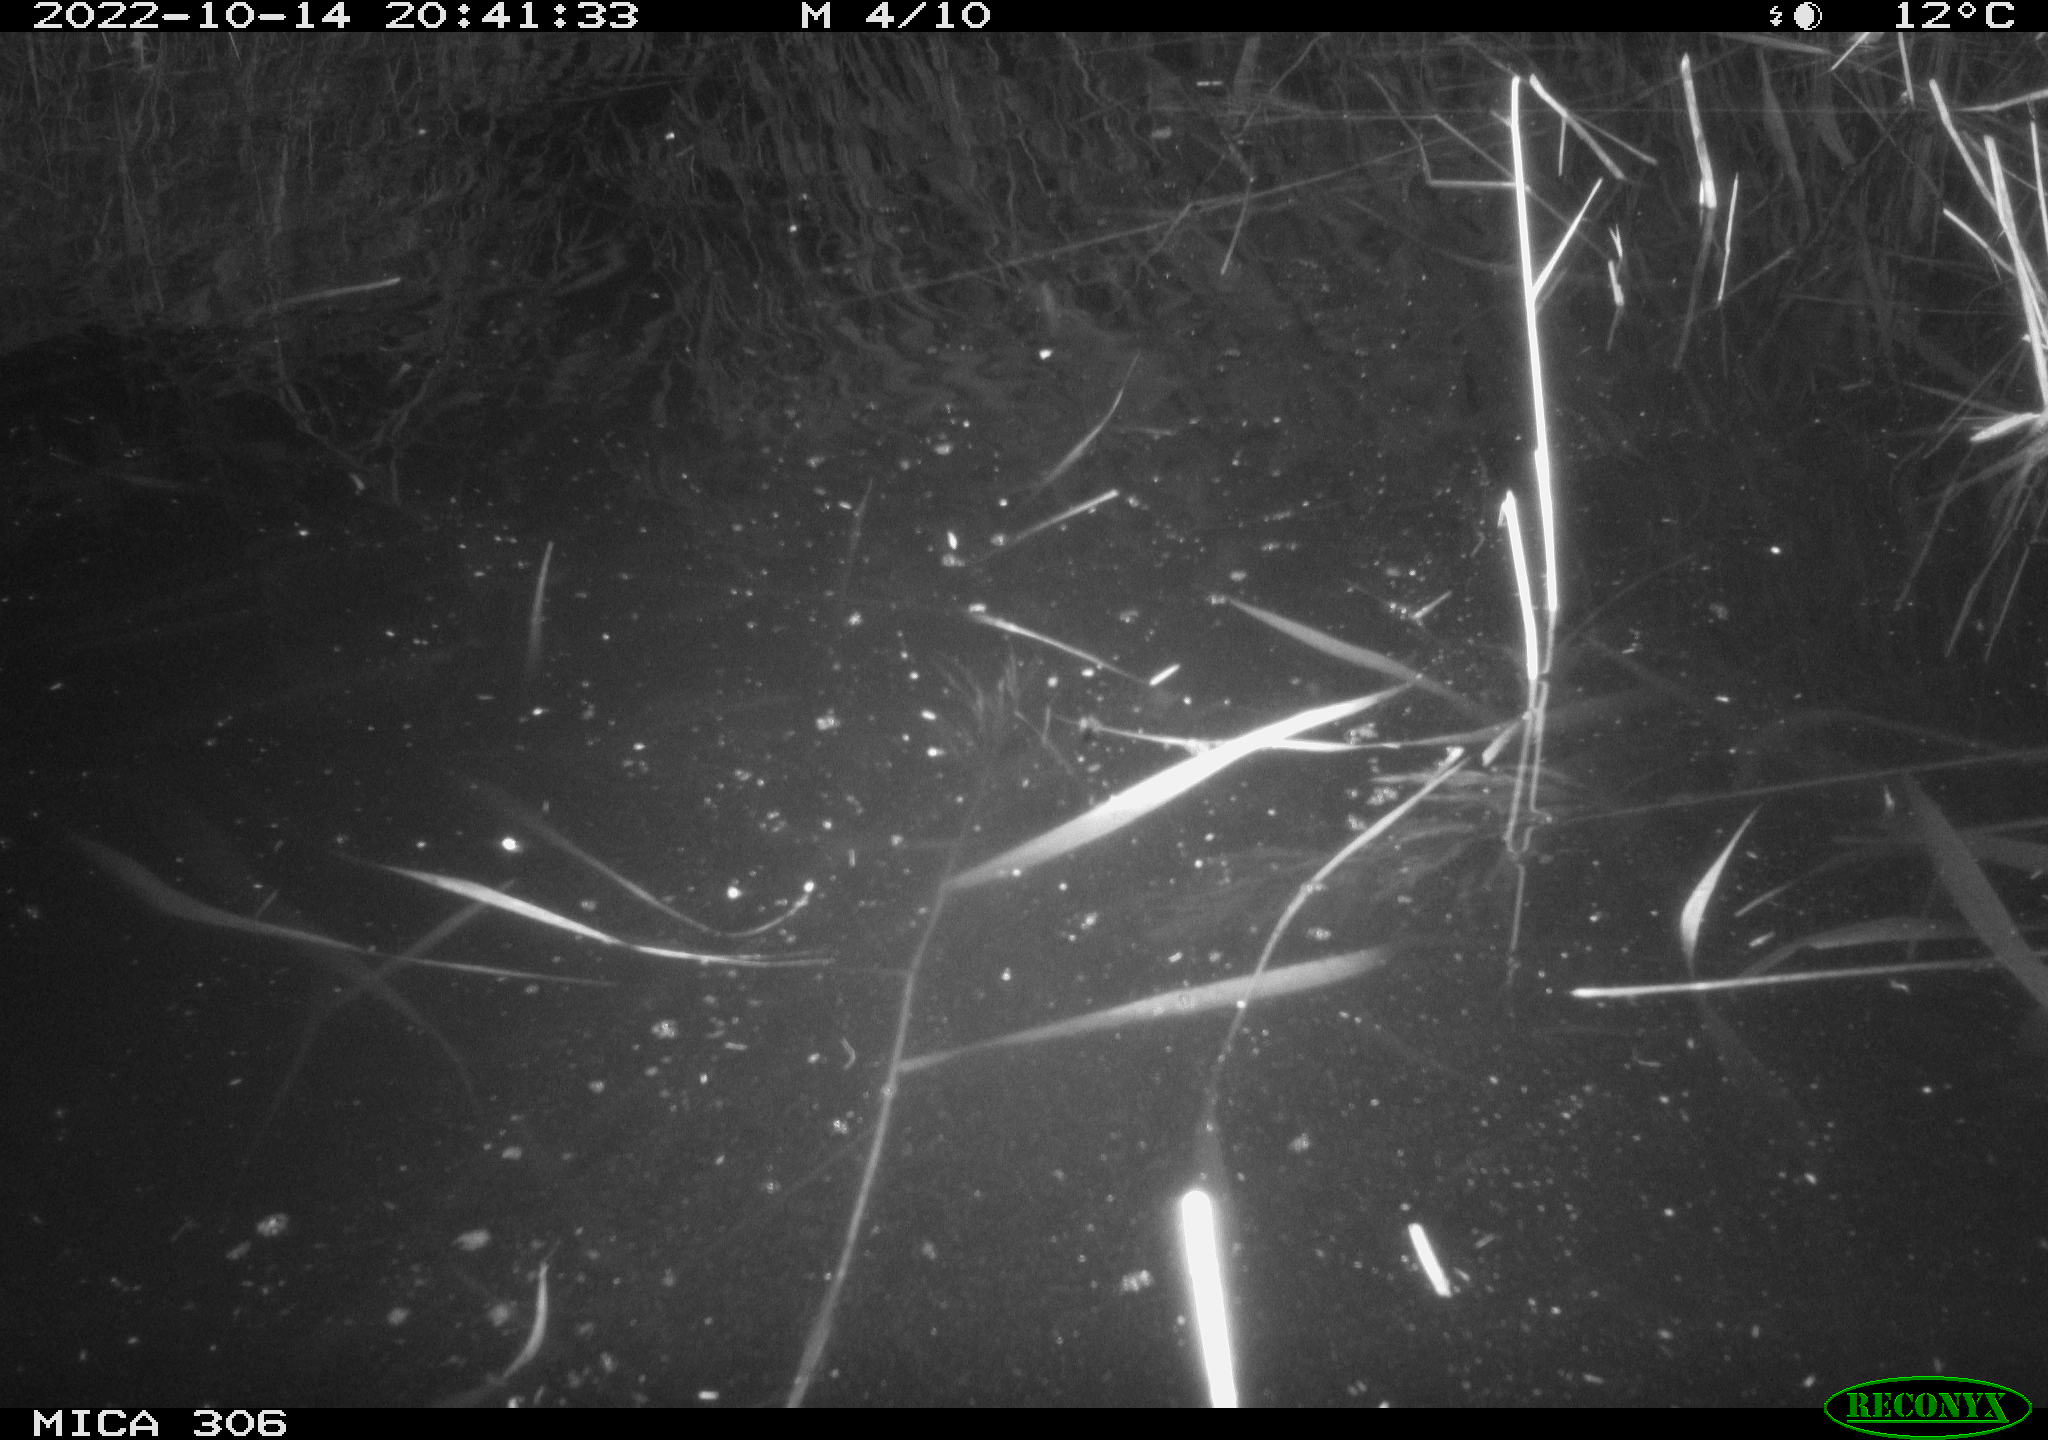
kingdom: Animalia
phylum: Chordata
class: Mammalia
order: Rodentia
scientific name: Rodentia
